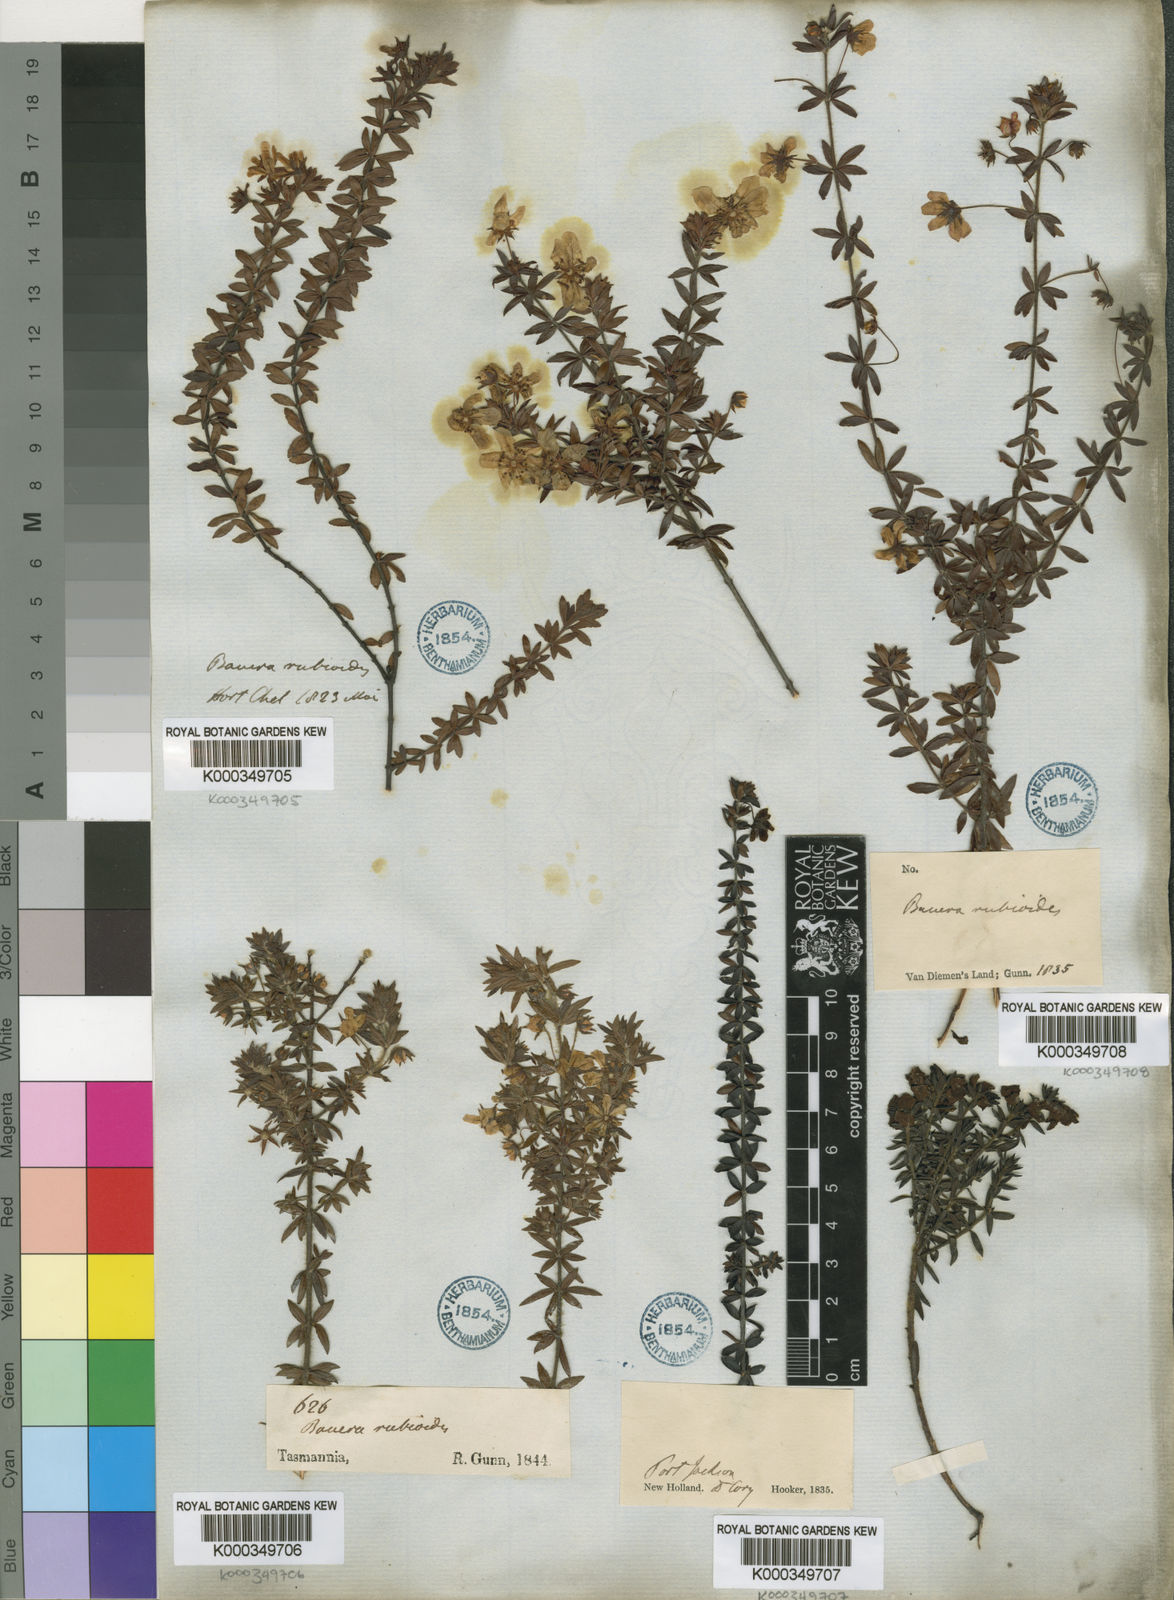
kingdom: Plantae
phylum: Tracheophyta
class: Magnoliopsida
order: Oxalidales
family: Cunoniaceae
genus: Bauera
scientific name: Bauera rubioides
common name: River-rose
